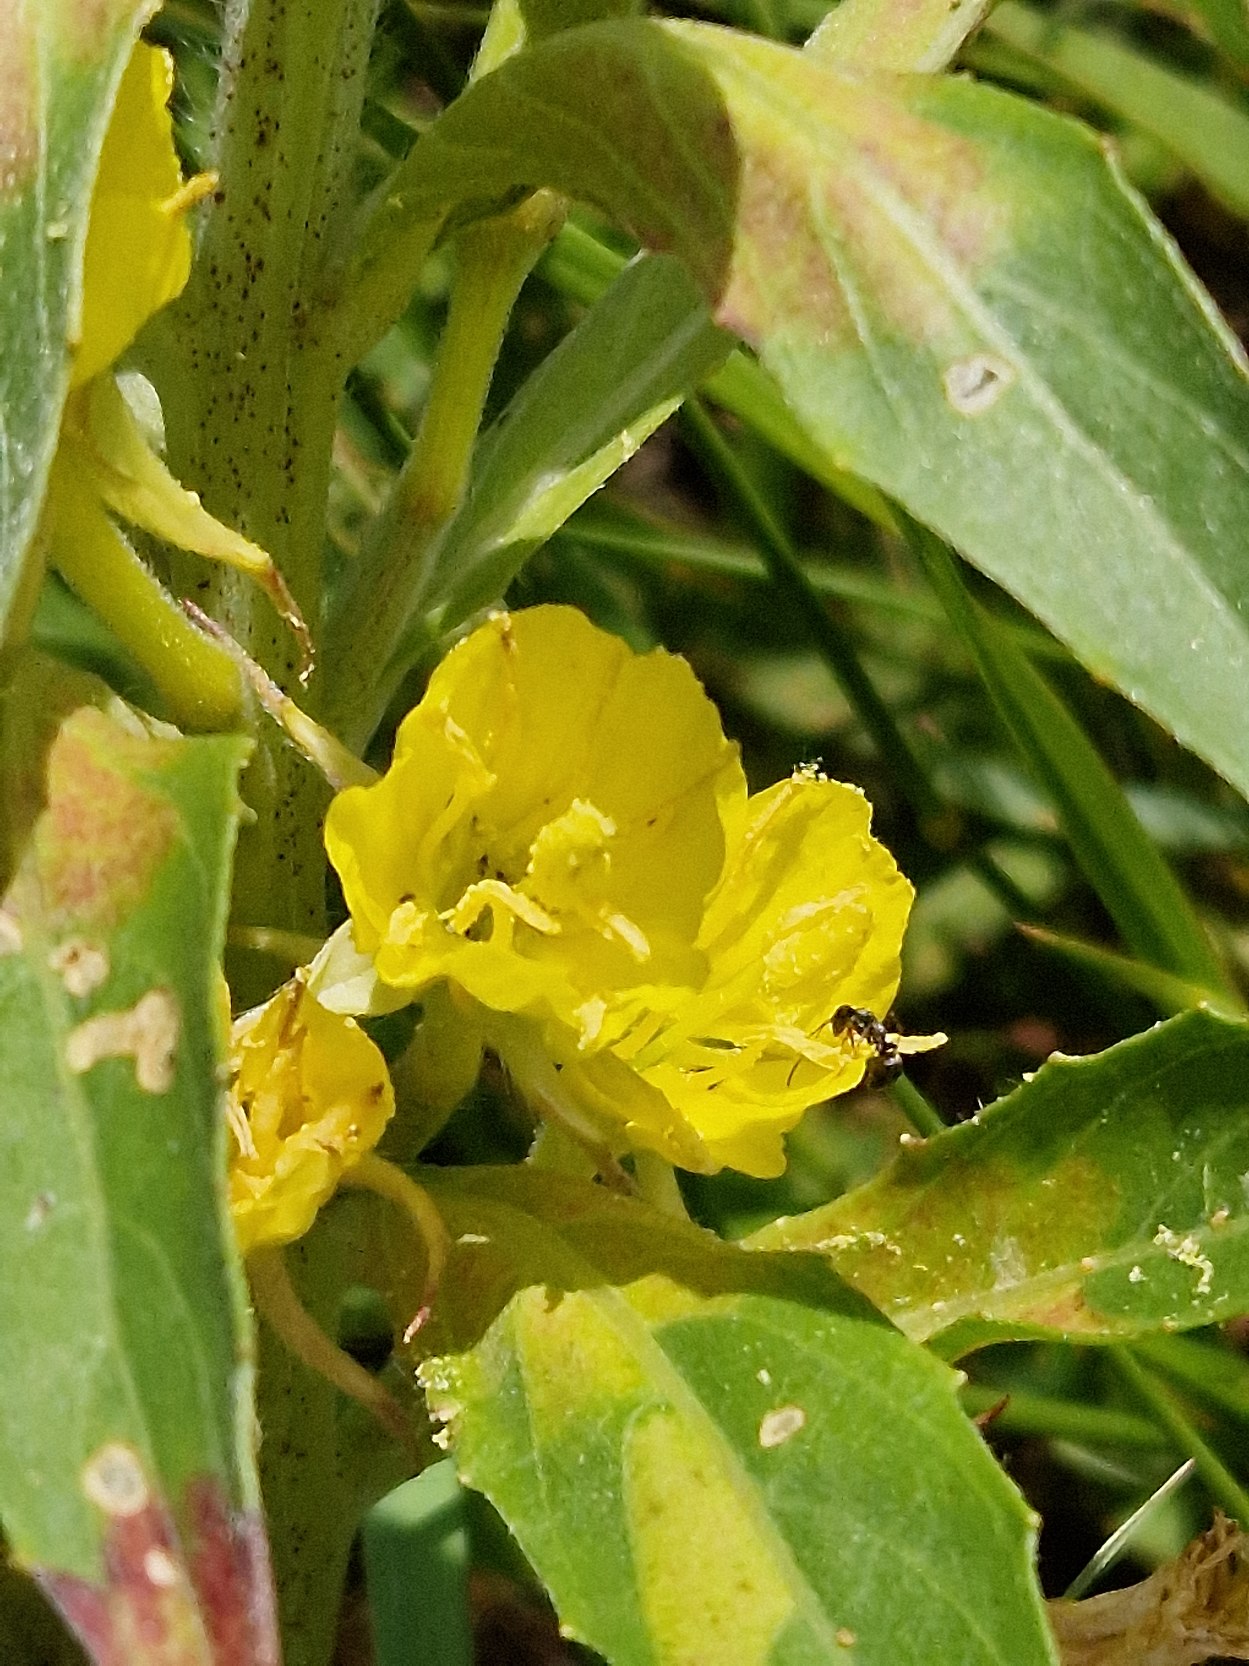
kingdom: Plantae
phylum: Tracheophyta
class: Magnoliopsida
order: Myrtales
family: Onagraceae
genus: Oenothera
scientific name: Oenothera
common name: Natlysslægten
